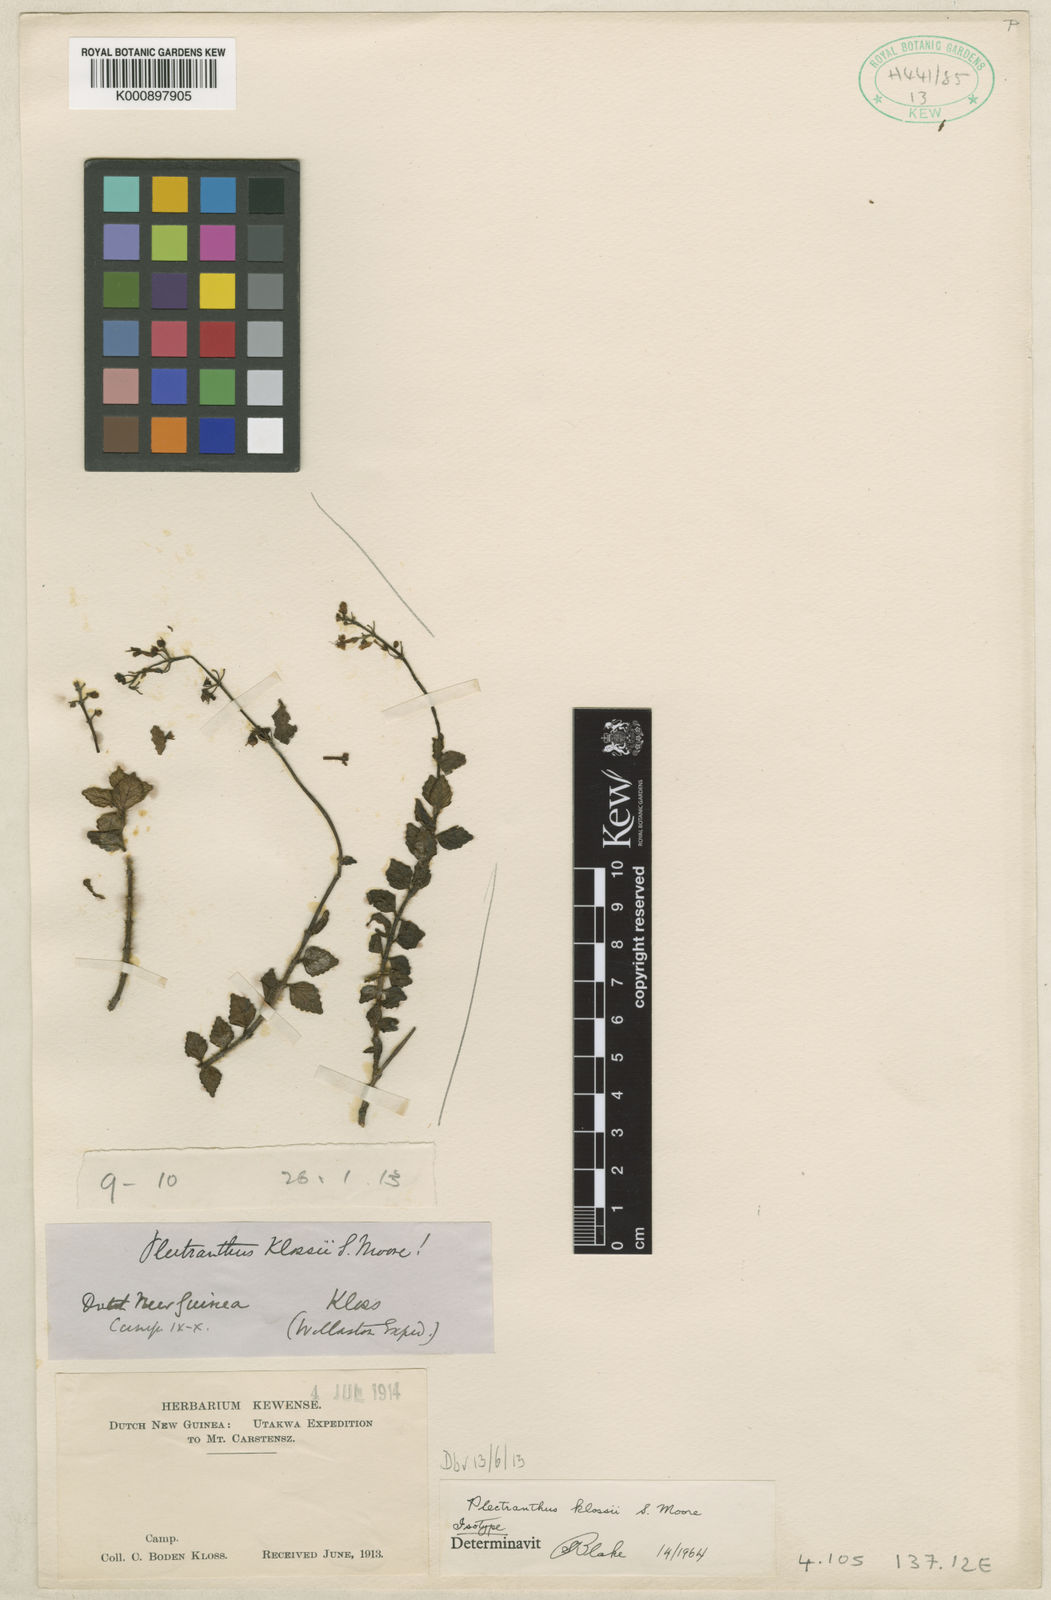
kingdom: Plantae
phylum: Tracheophyta
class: Magnoliopsida
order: Lamiales
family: Lamiaceae
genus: Coleus
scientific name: Coleus klossii
